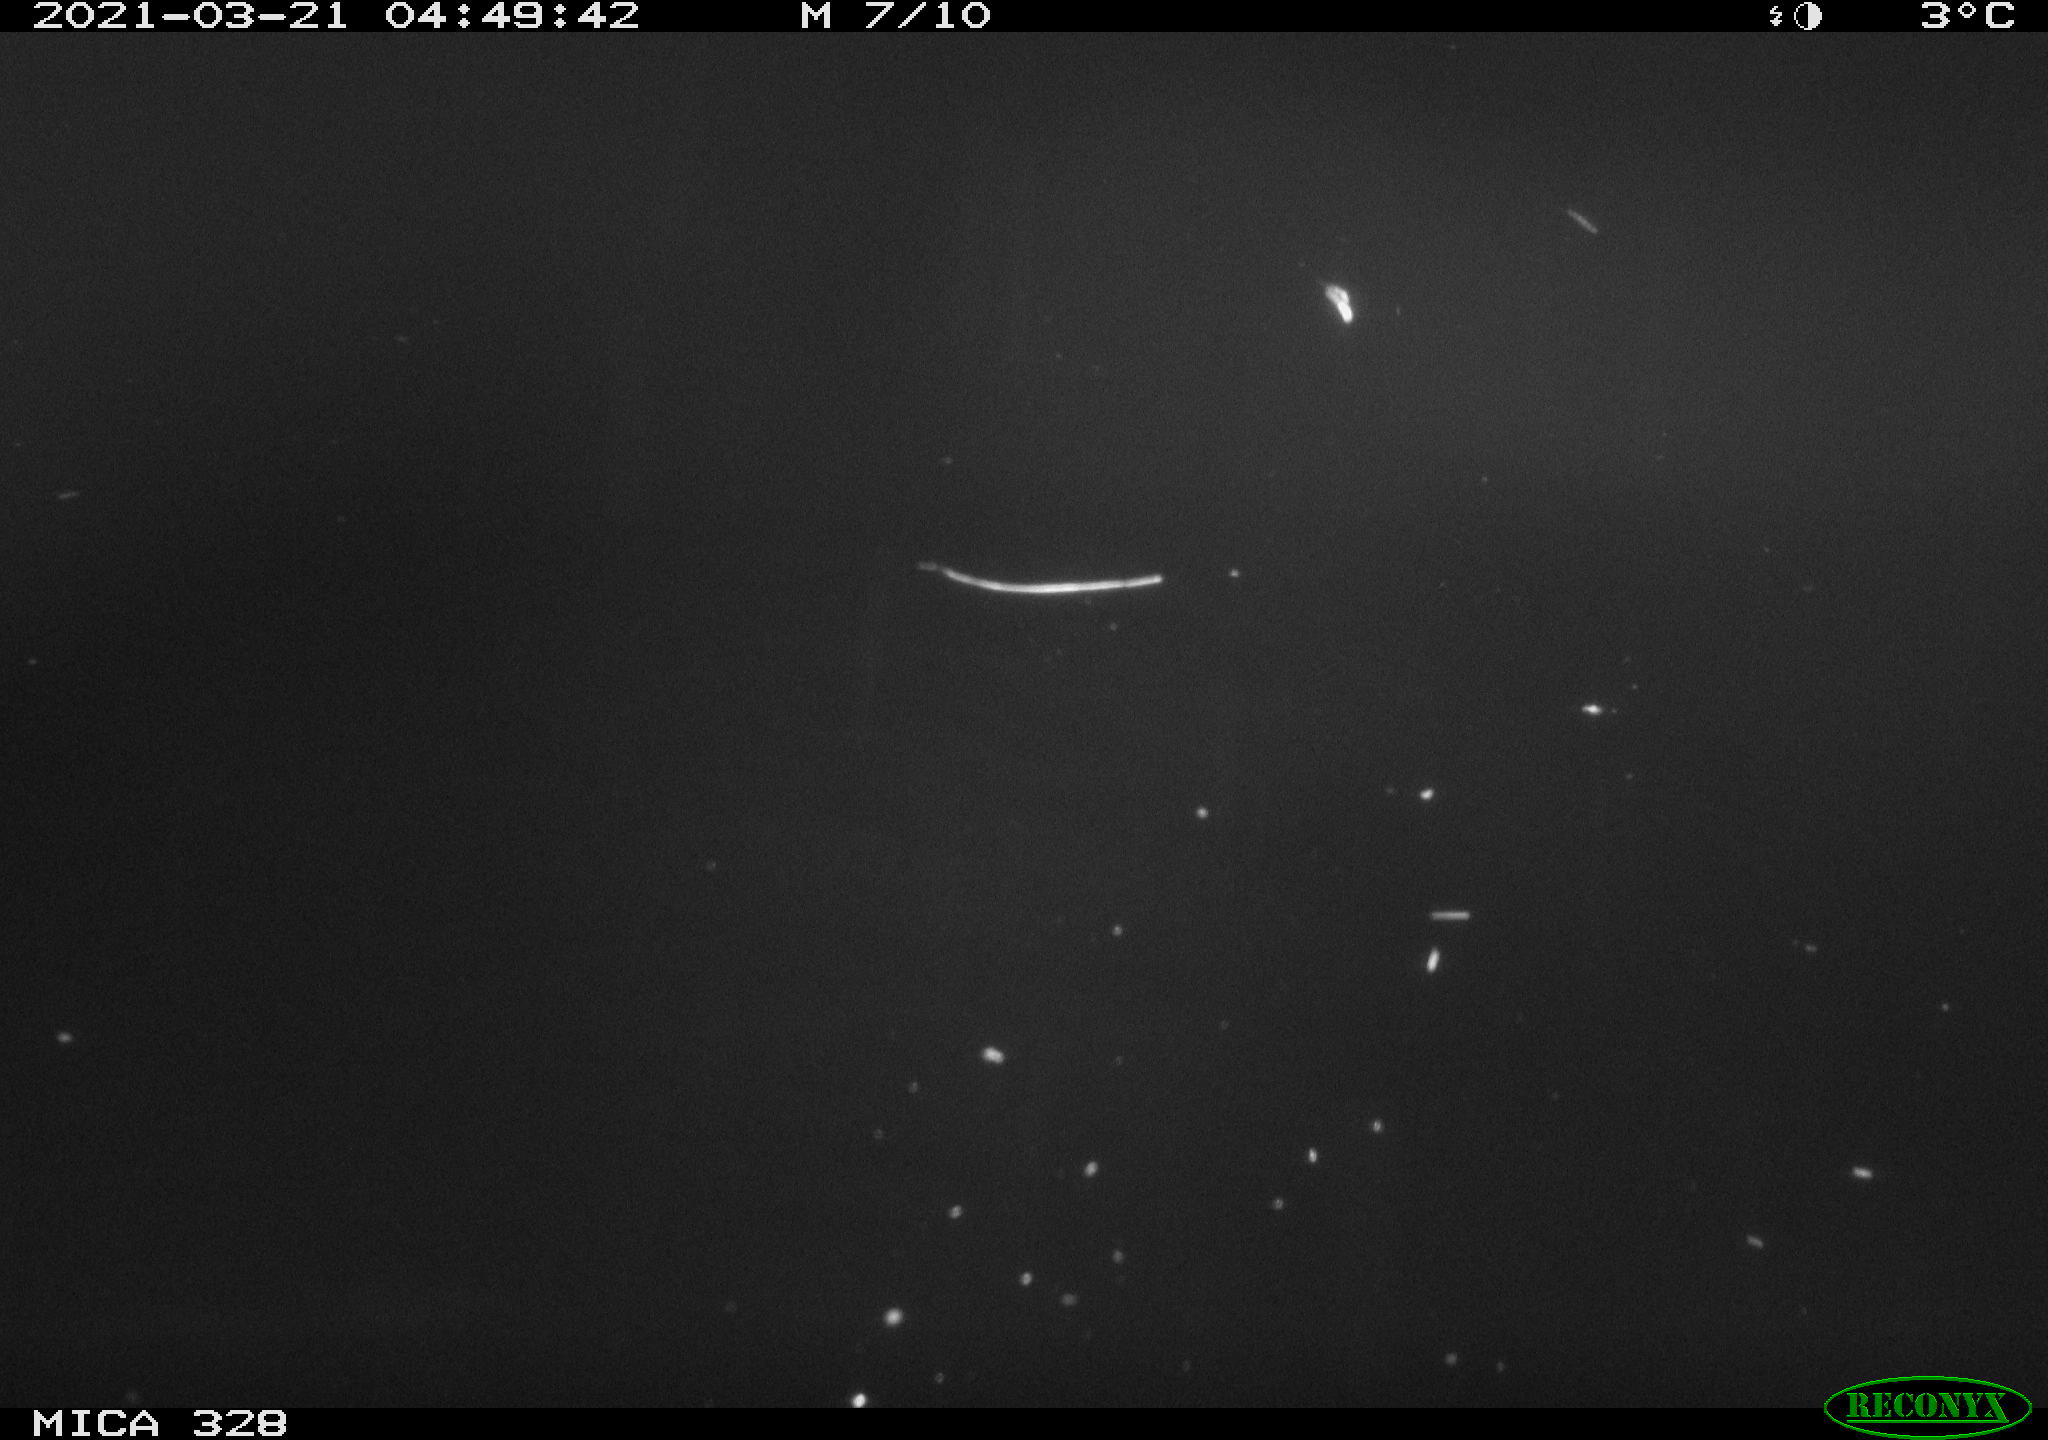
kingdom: Animalia
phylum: Chordata
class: Mammalia
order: Rodentia
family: Cricetidae
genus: Ondatra
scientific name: Ondatra zibethicus
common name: Muskrat
